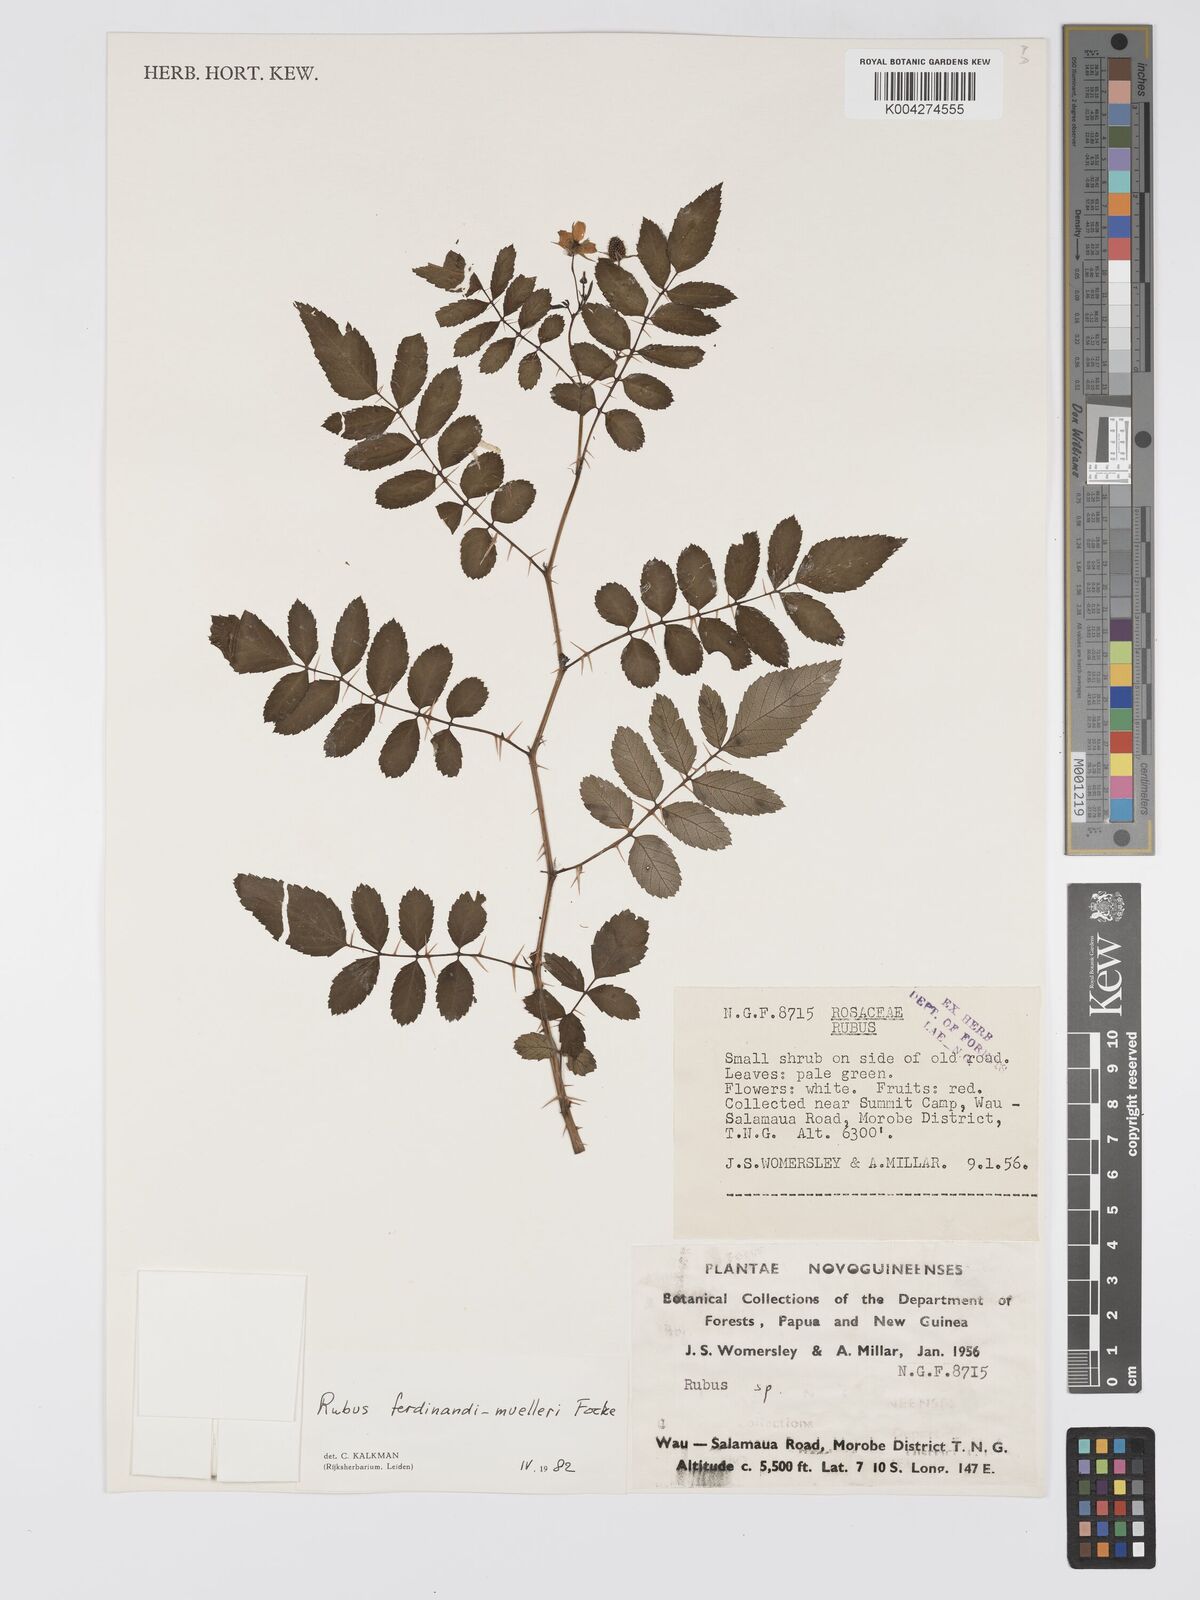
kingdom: Plantae
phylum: Tracheophyta
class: Magnoliopsida
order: Rosales
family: Rosaceae
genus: Rubus
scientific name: Rubus ferdinandimuelleri
